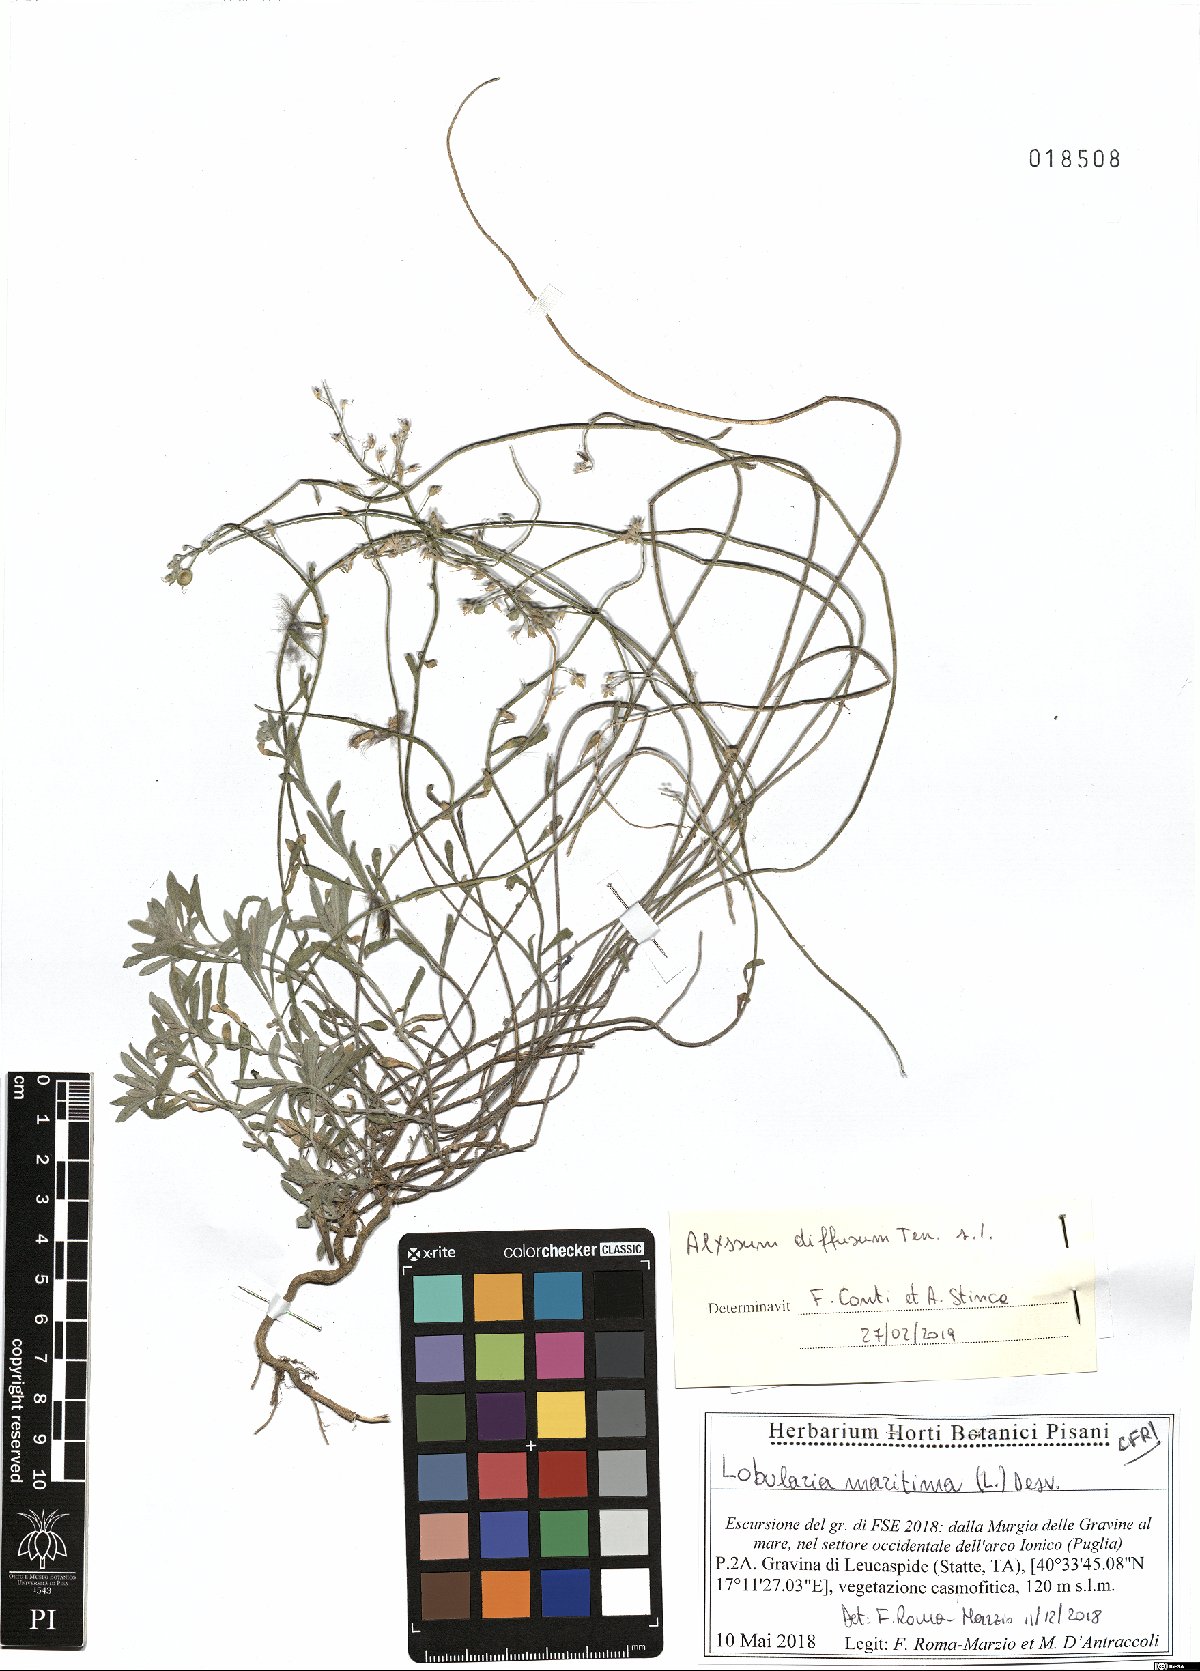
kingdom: Plantae
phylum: Tracheophyta
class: Magnoliopsida
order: Brassicales
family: Brassicaceae
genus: Alyssum
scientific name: Alyssum diffusum
